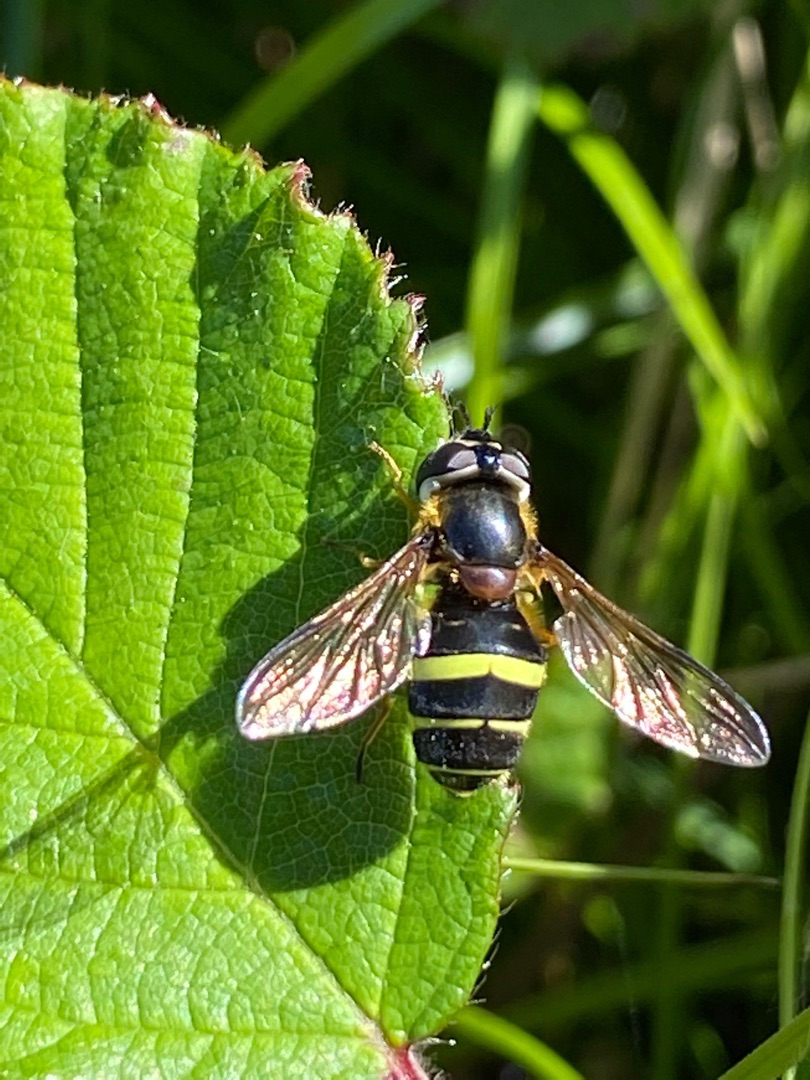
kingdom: Animalia
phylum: Arthropoda
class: Insecta
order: Diptera
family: Syrphidae
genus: Dasysyrphus
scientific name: Dasysyrphus tricinctus
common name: Bredbåndet skovsvirreflue
